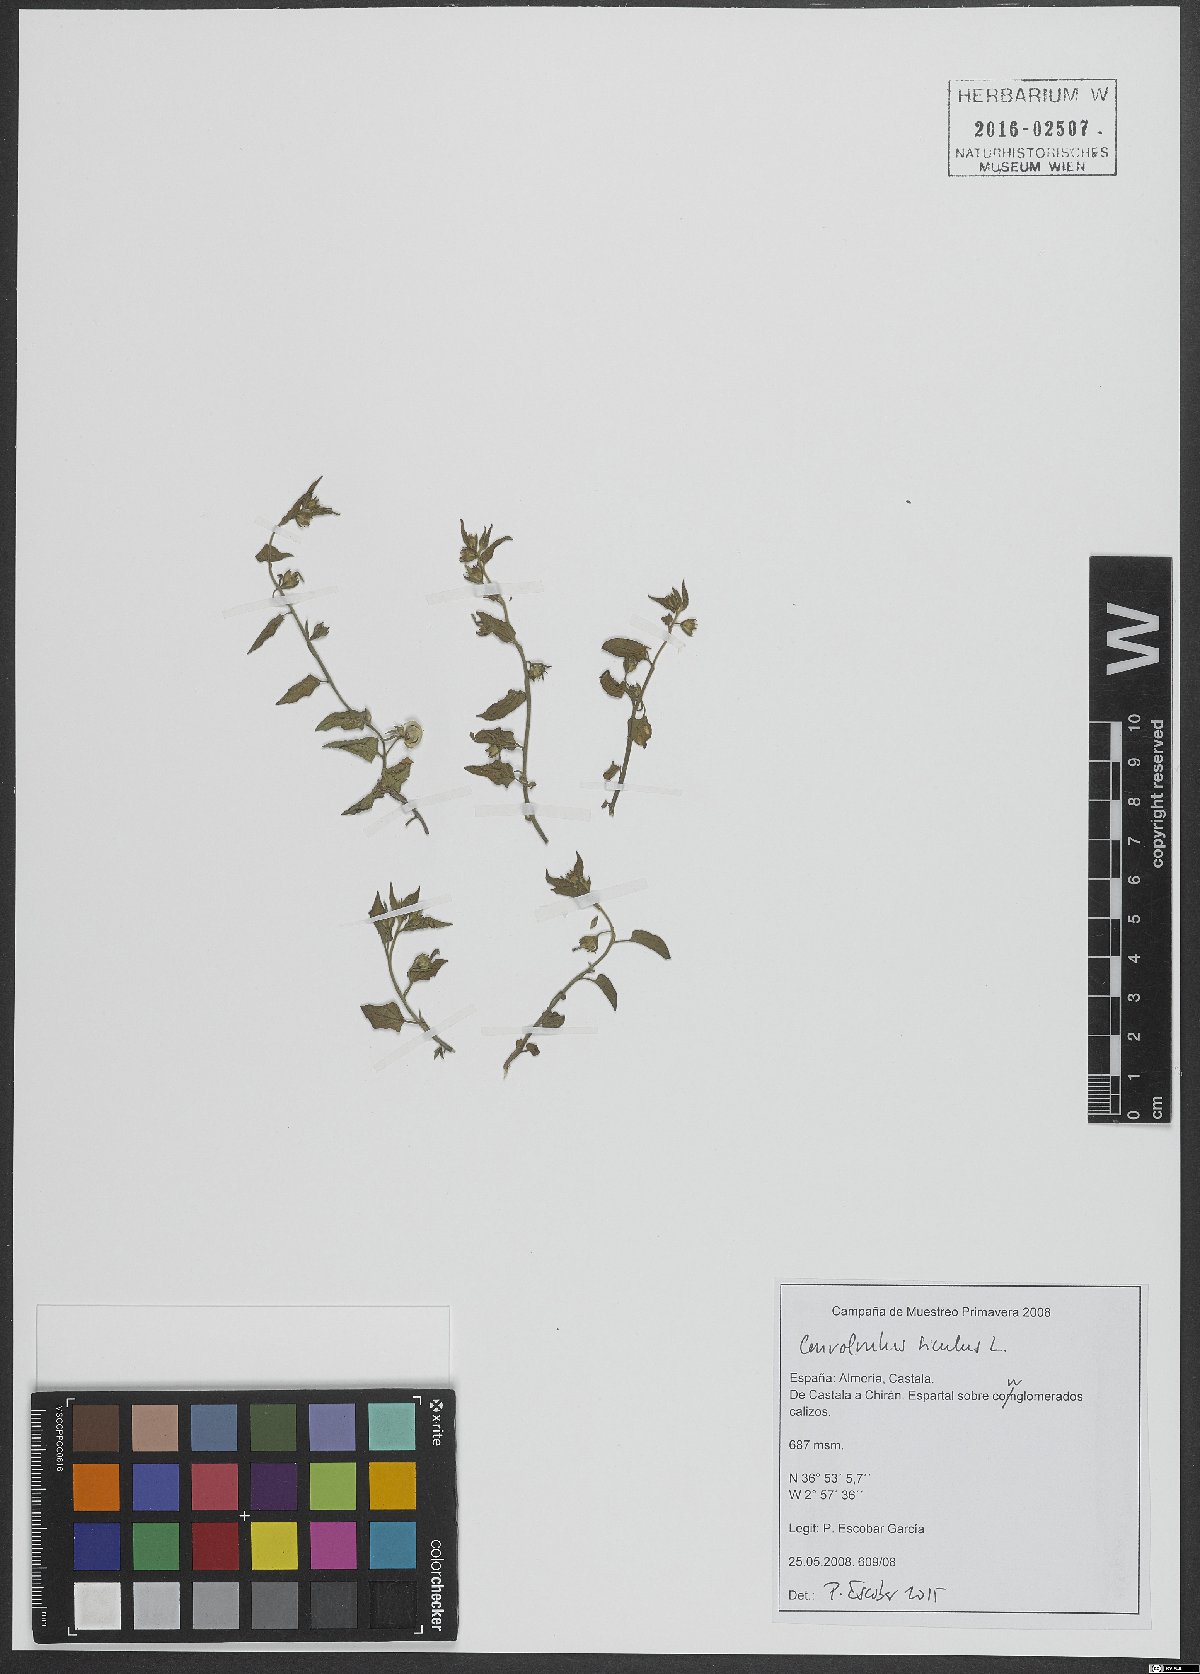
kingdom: Plantae
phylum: Tracheophyta
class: Magnoliopsida
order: Solanales
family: Convolvulaceae
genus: Convolvulus
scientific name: Convolvulus siculus
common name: Small blue-convolvulus
